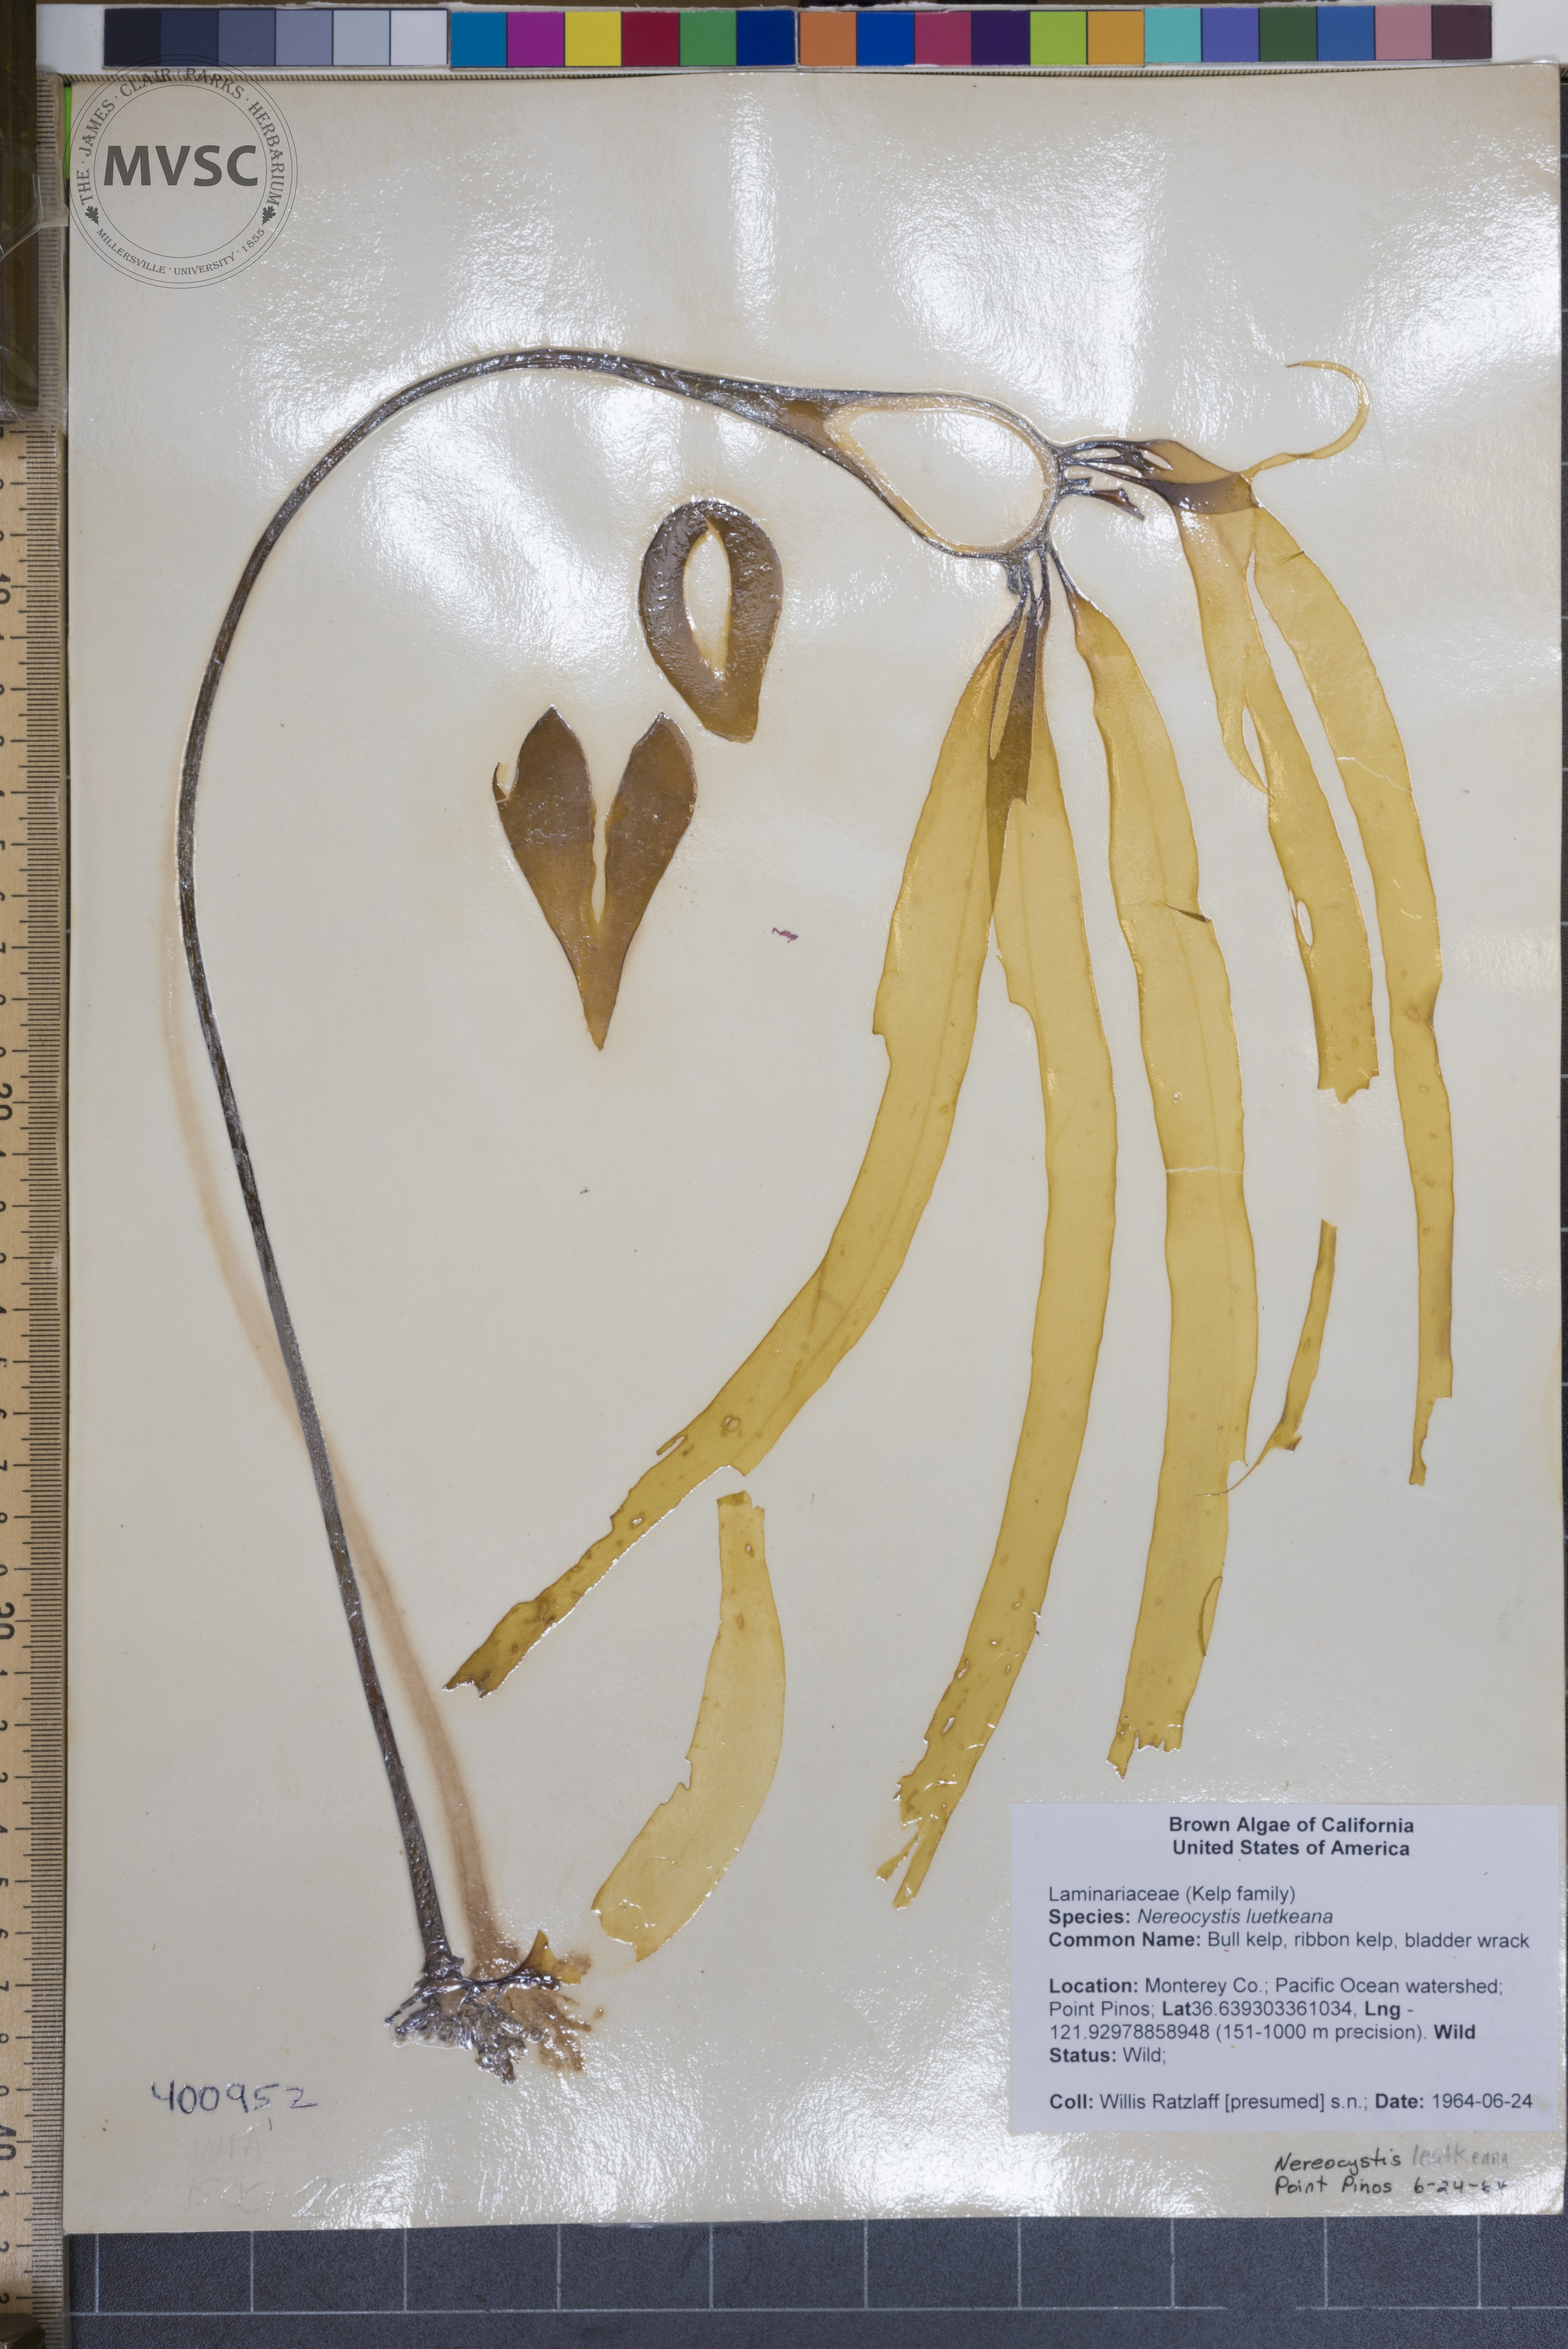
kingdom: Chromista
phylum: Ochrophyta
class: Phaeophyceae
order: Laminariales
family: Laminariaceae
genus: Nereocystis
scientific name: Nereocystis luetkeana
